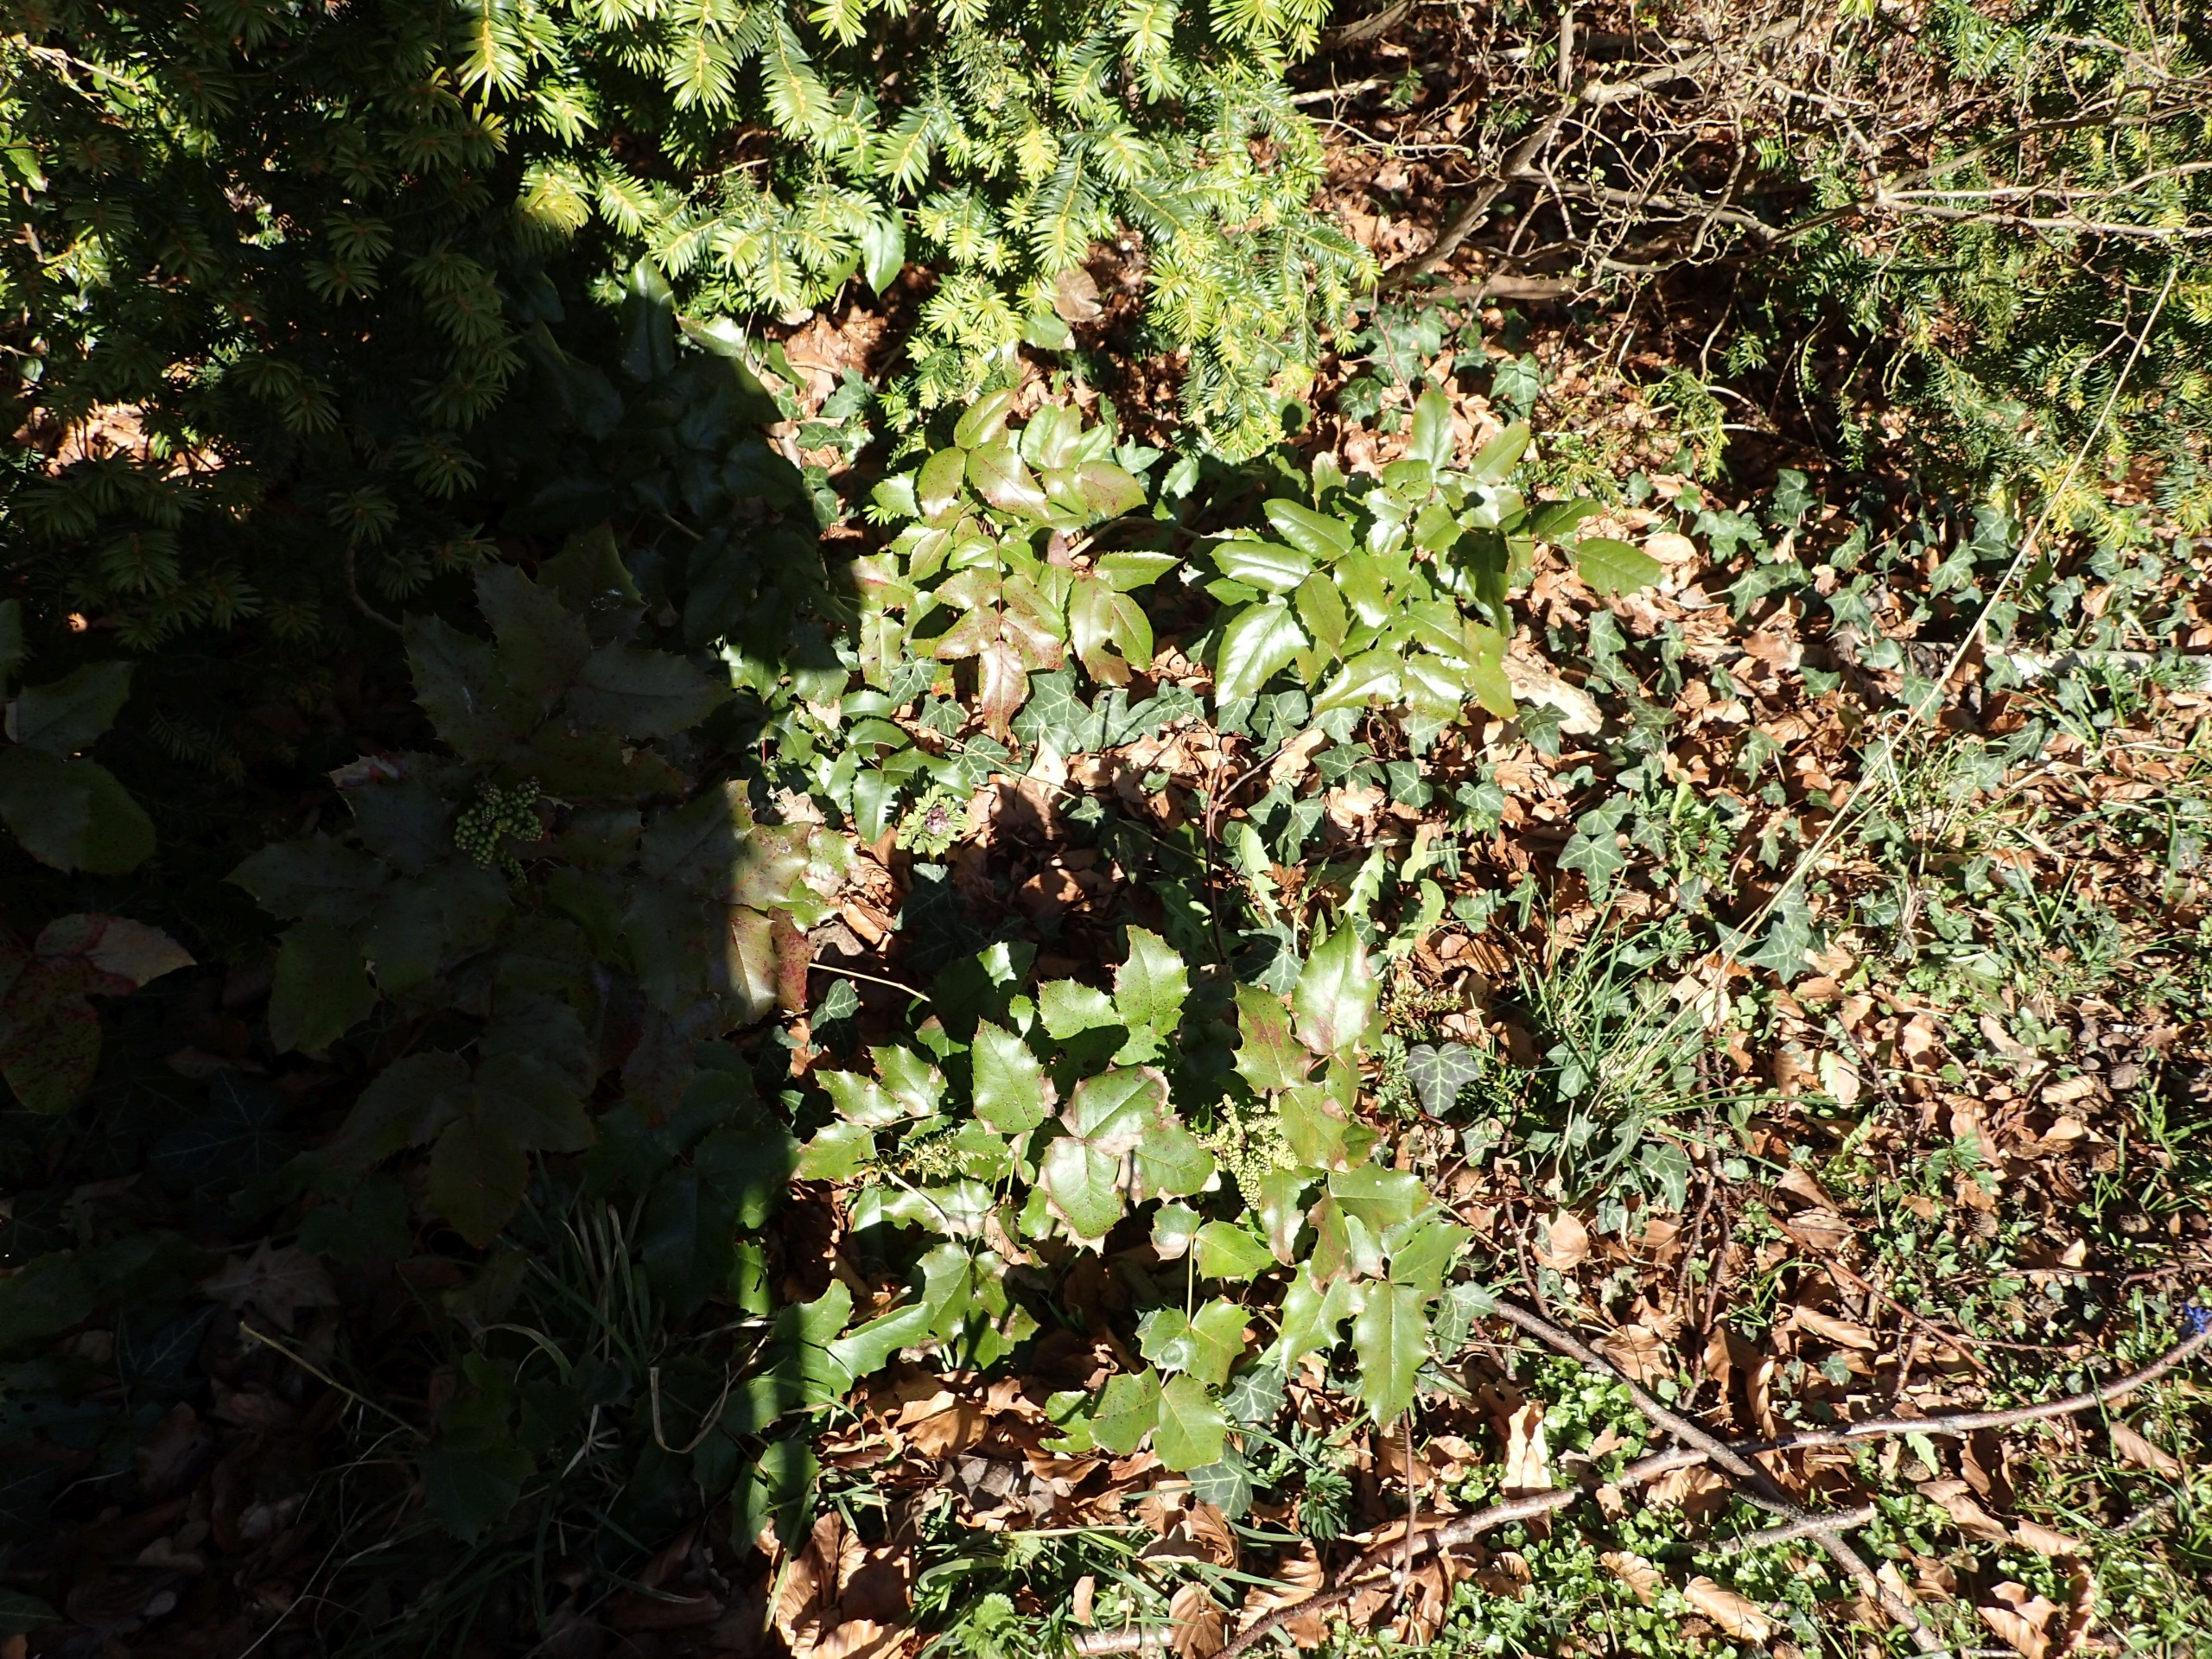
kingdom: Plantae
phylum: Tracheophyta
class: Magnoliopsida
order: Ranunculales
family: Berberidaceae
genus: Mahonia
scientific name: Mahonia aquifolium
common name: Almindelig mahonie
